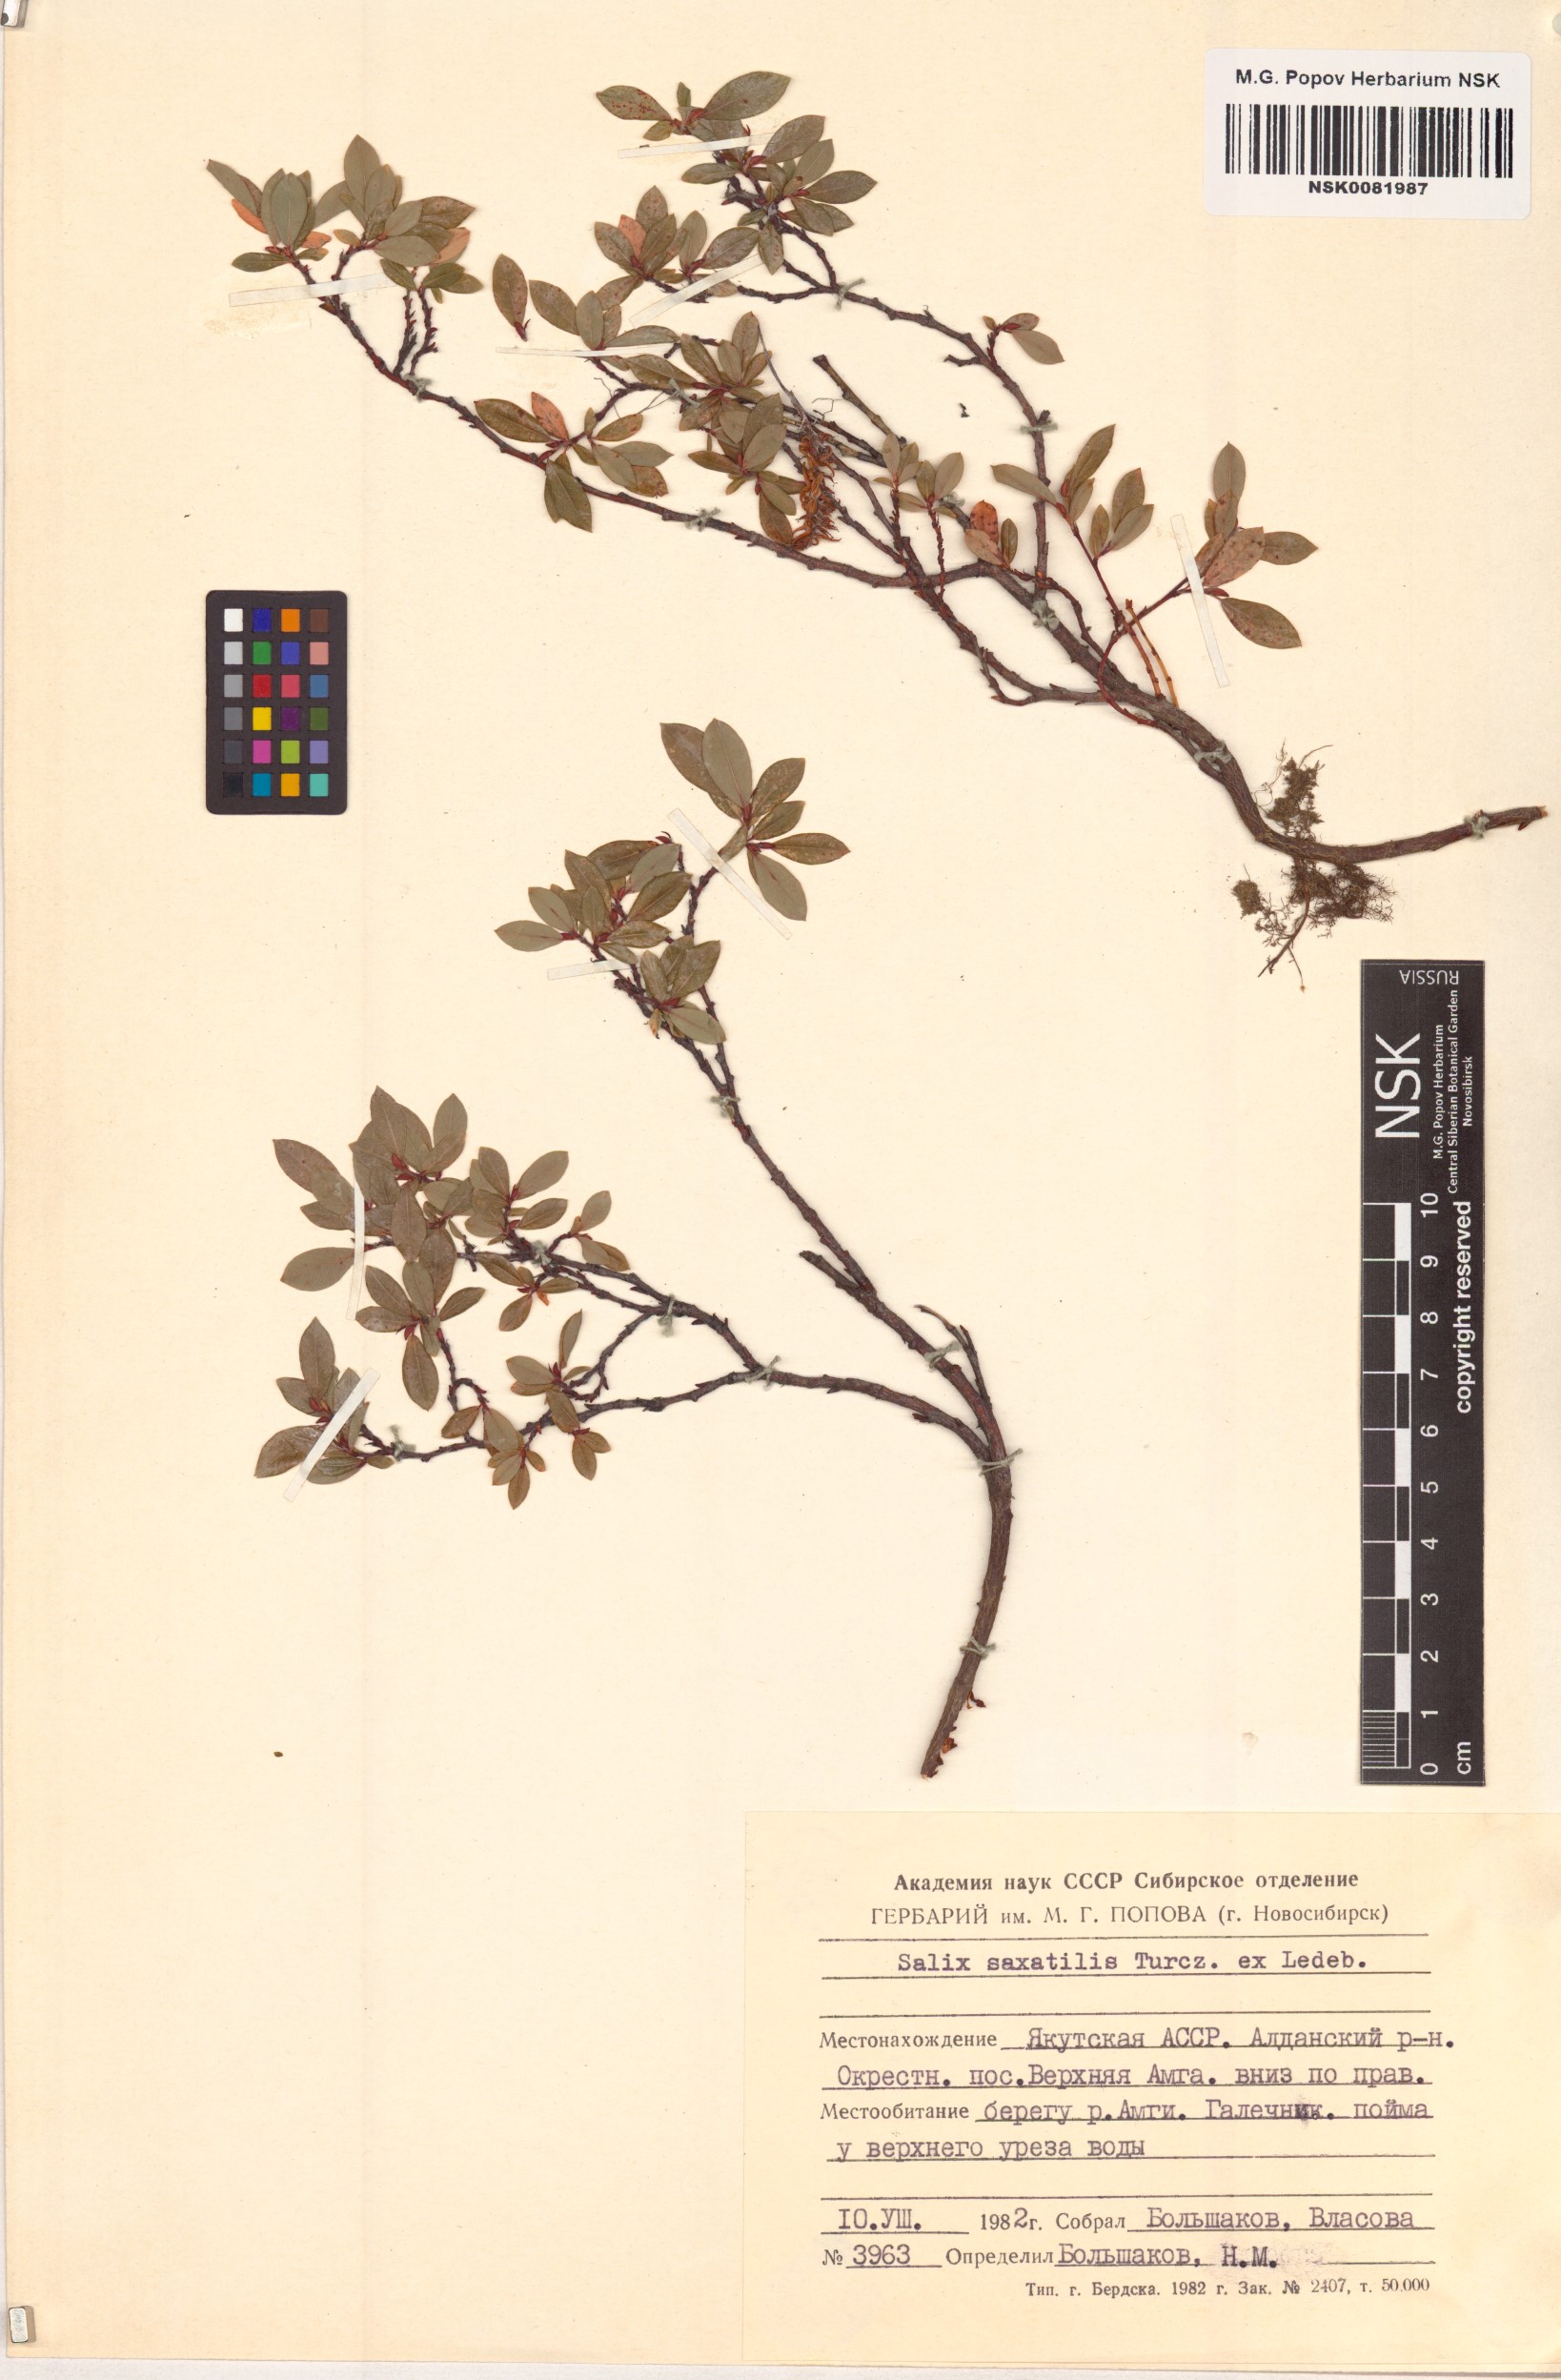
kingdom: Plantae
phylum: Tracheophyta
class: Magnoliopsida
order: Malpighiales
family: Salicaceae
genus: Salix
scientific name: Salix saxatilis
